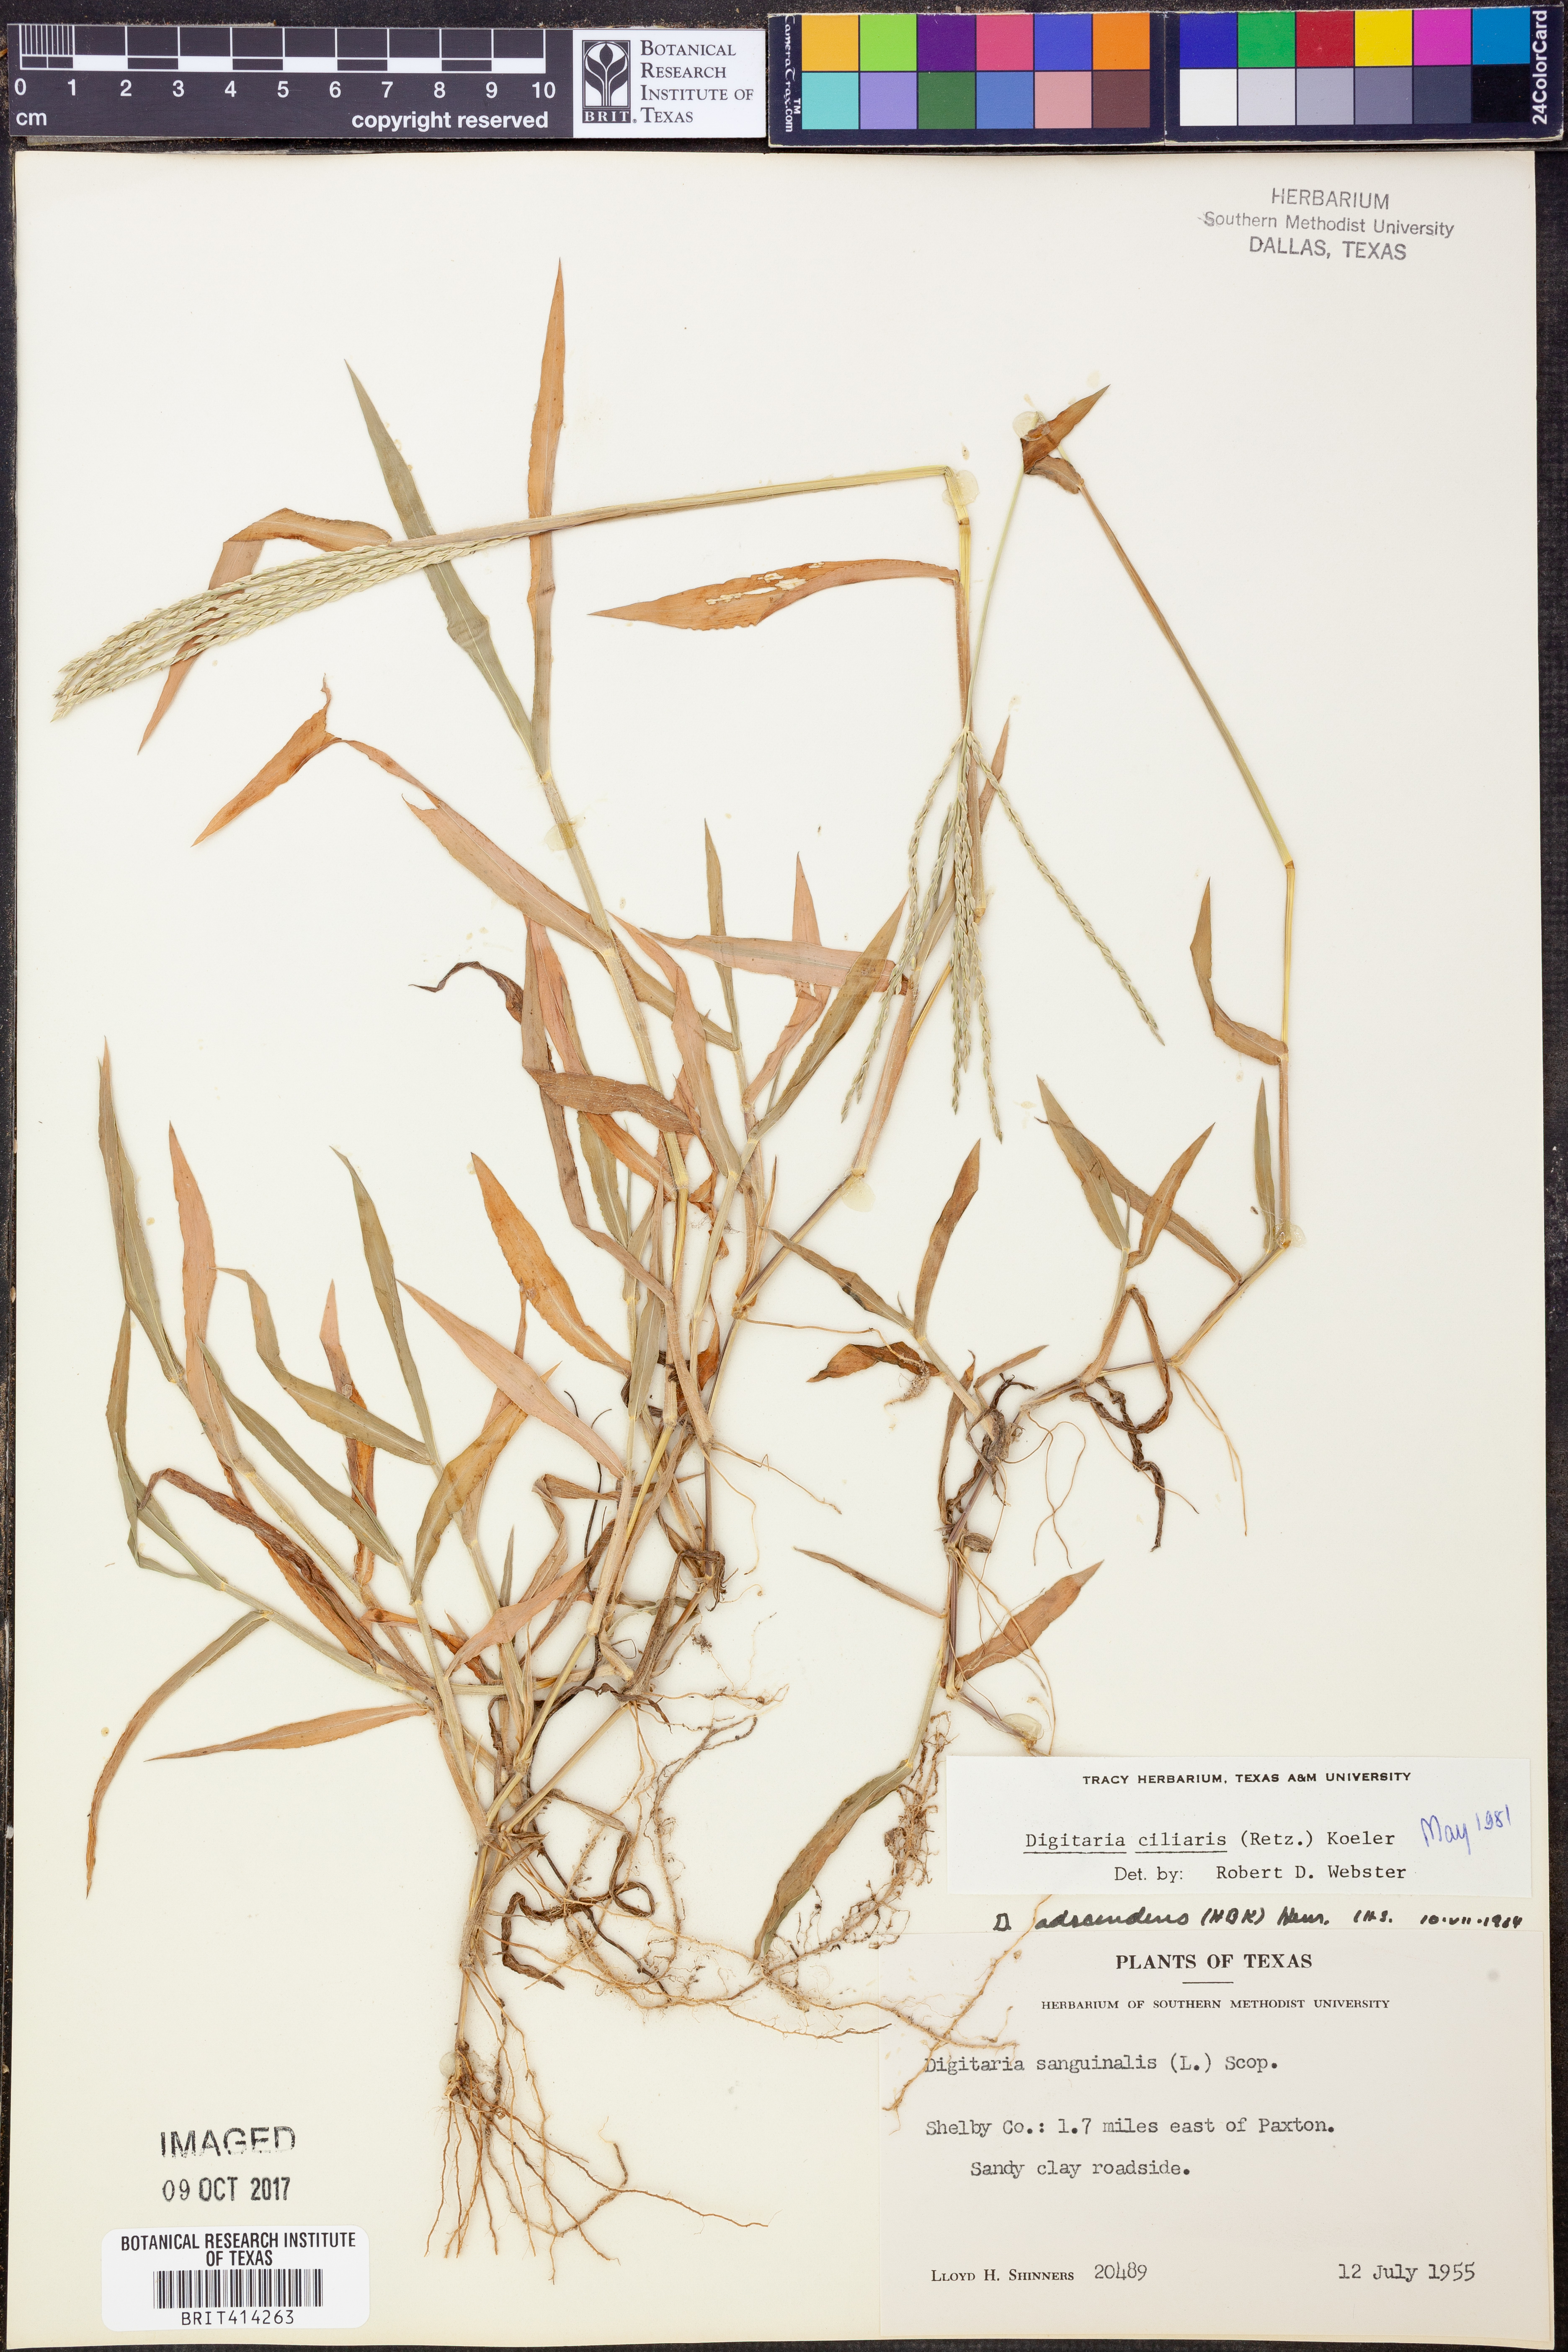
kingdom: Plantae
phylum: Tracheophyta
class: Liliopsida
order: Poales
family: Poaceae
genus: Digitaria
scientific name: Digitaria ciliaris
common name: Tropical finger-grass
